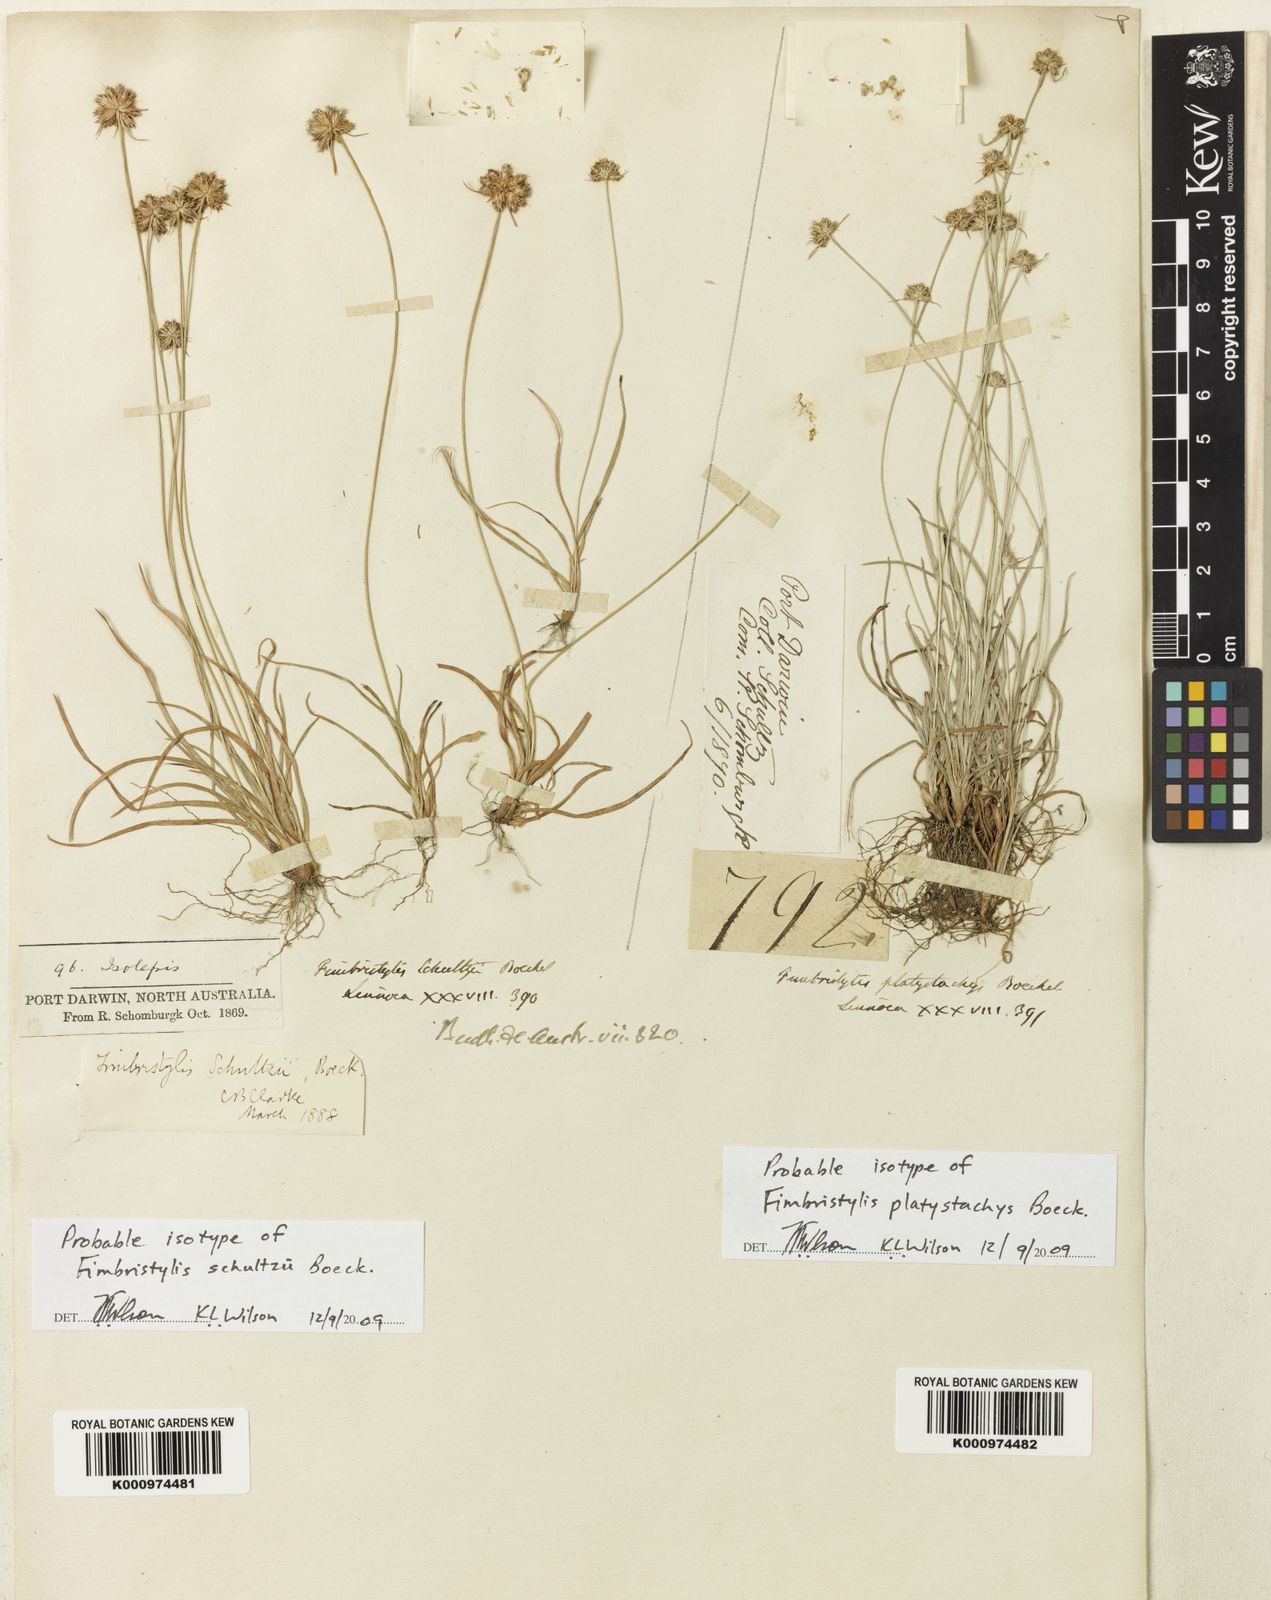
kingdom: Plantae
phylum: Tracheophyta
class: Liliopsida
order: Poales
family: Cyperaceae
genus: Fimbristylis
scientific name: Fimbristylis schultzii
